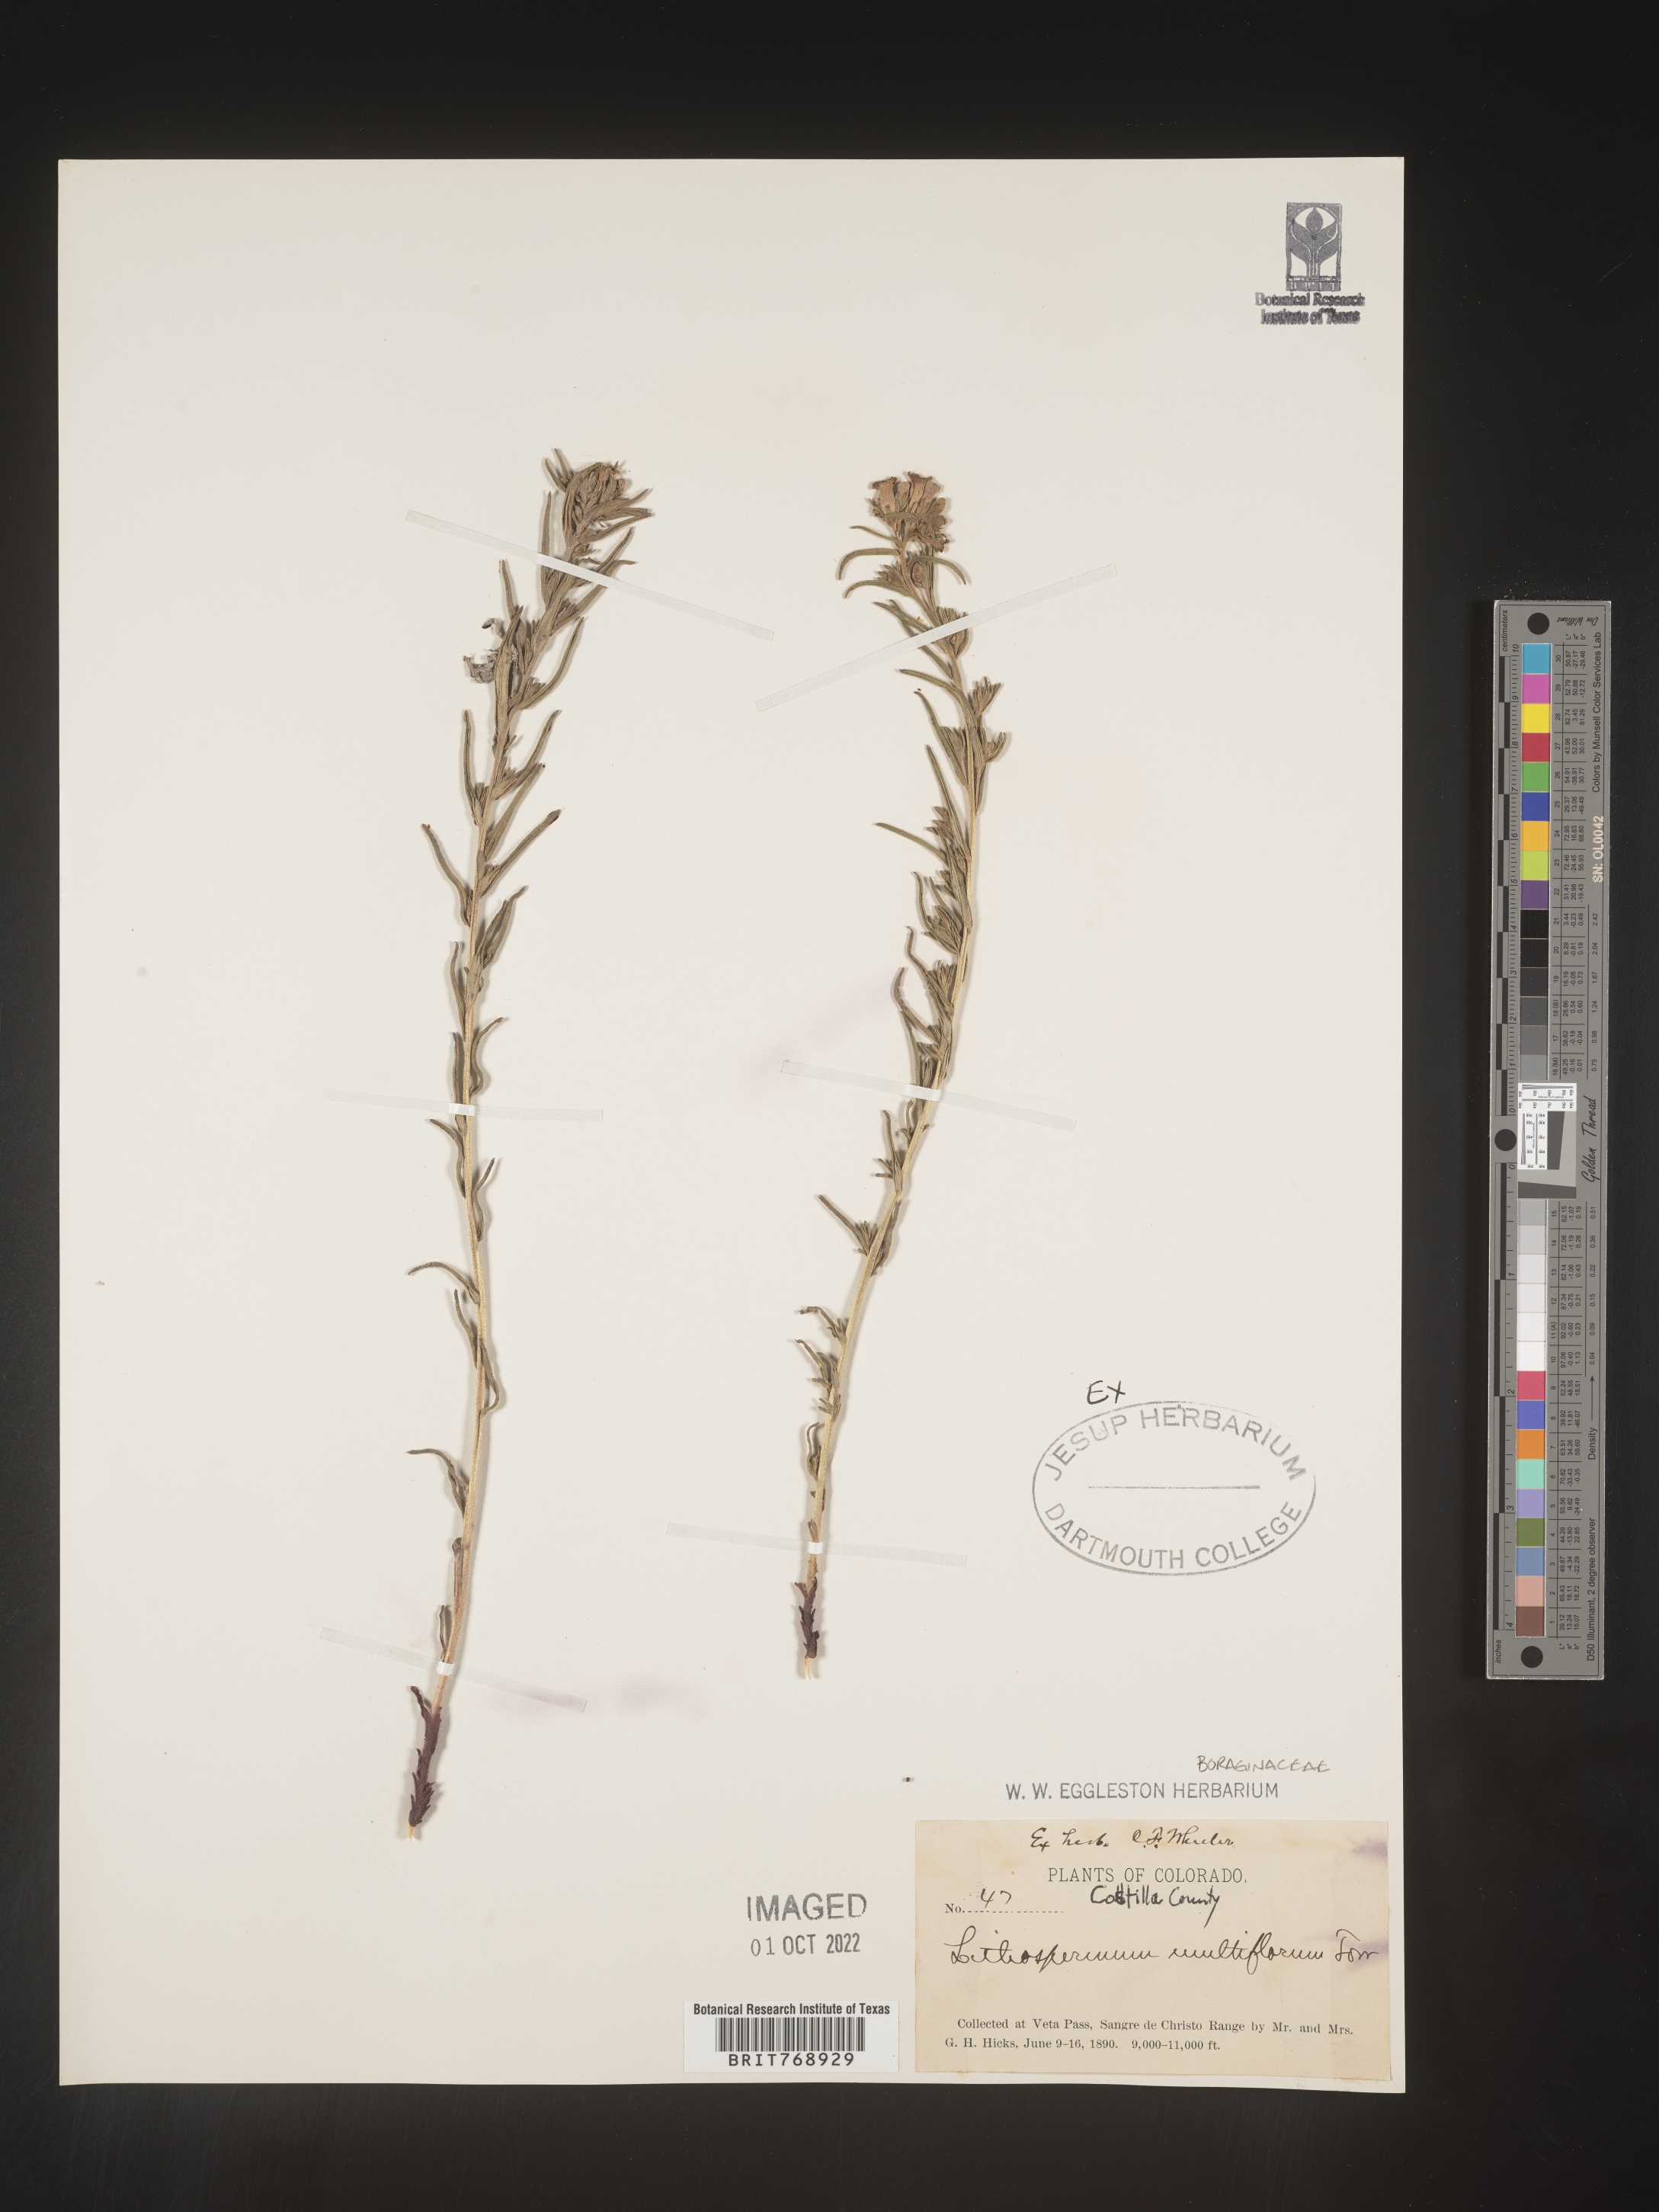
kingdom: Plantae
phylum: Tracheophyta
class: Magnoliopsida
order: Boraginales
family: Boraginaceae
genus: Lithospermum
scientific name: Lithospermum multiflorum
